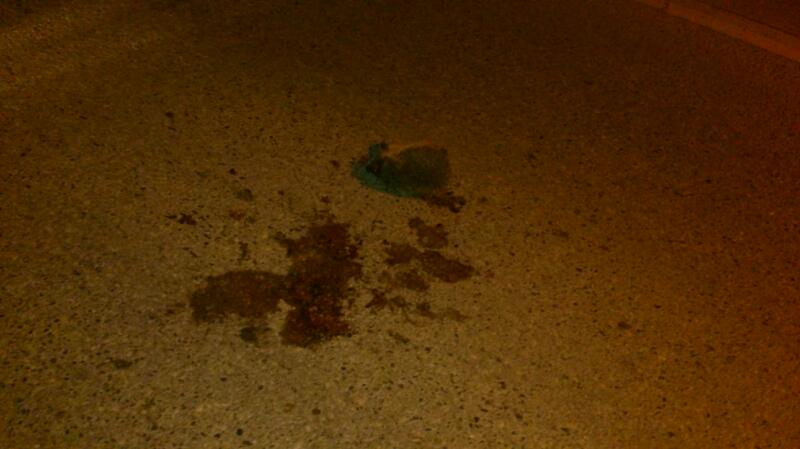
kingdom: Animalia
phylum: Chordata
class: Mammalia
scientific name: Mammalia
